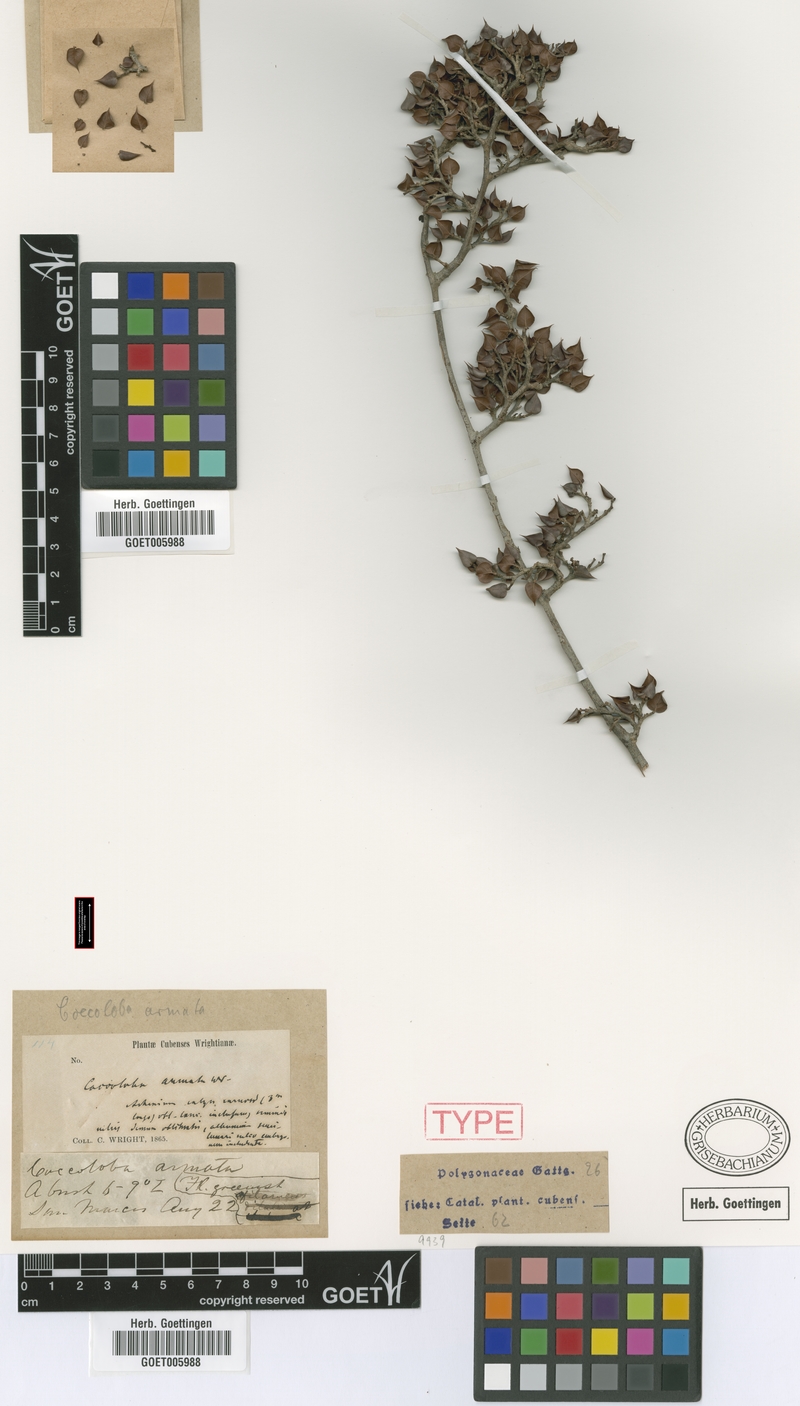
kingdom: Plantae
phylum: Tracheophyta
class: Magnoliopsida
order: Caryophyllales
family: Polygonaceae
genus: Coccoloba
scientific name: Coccoloba armata
